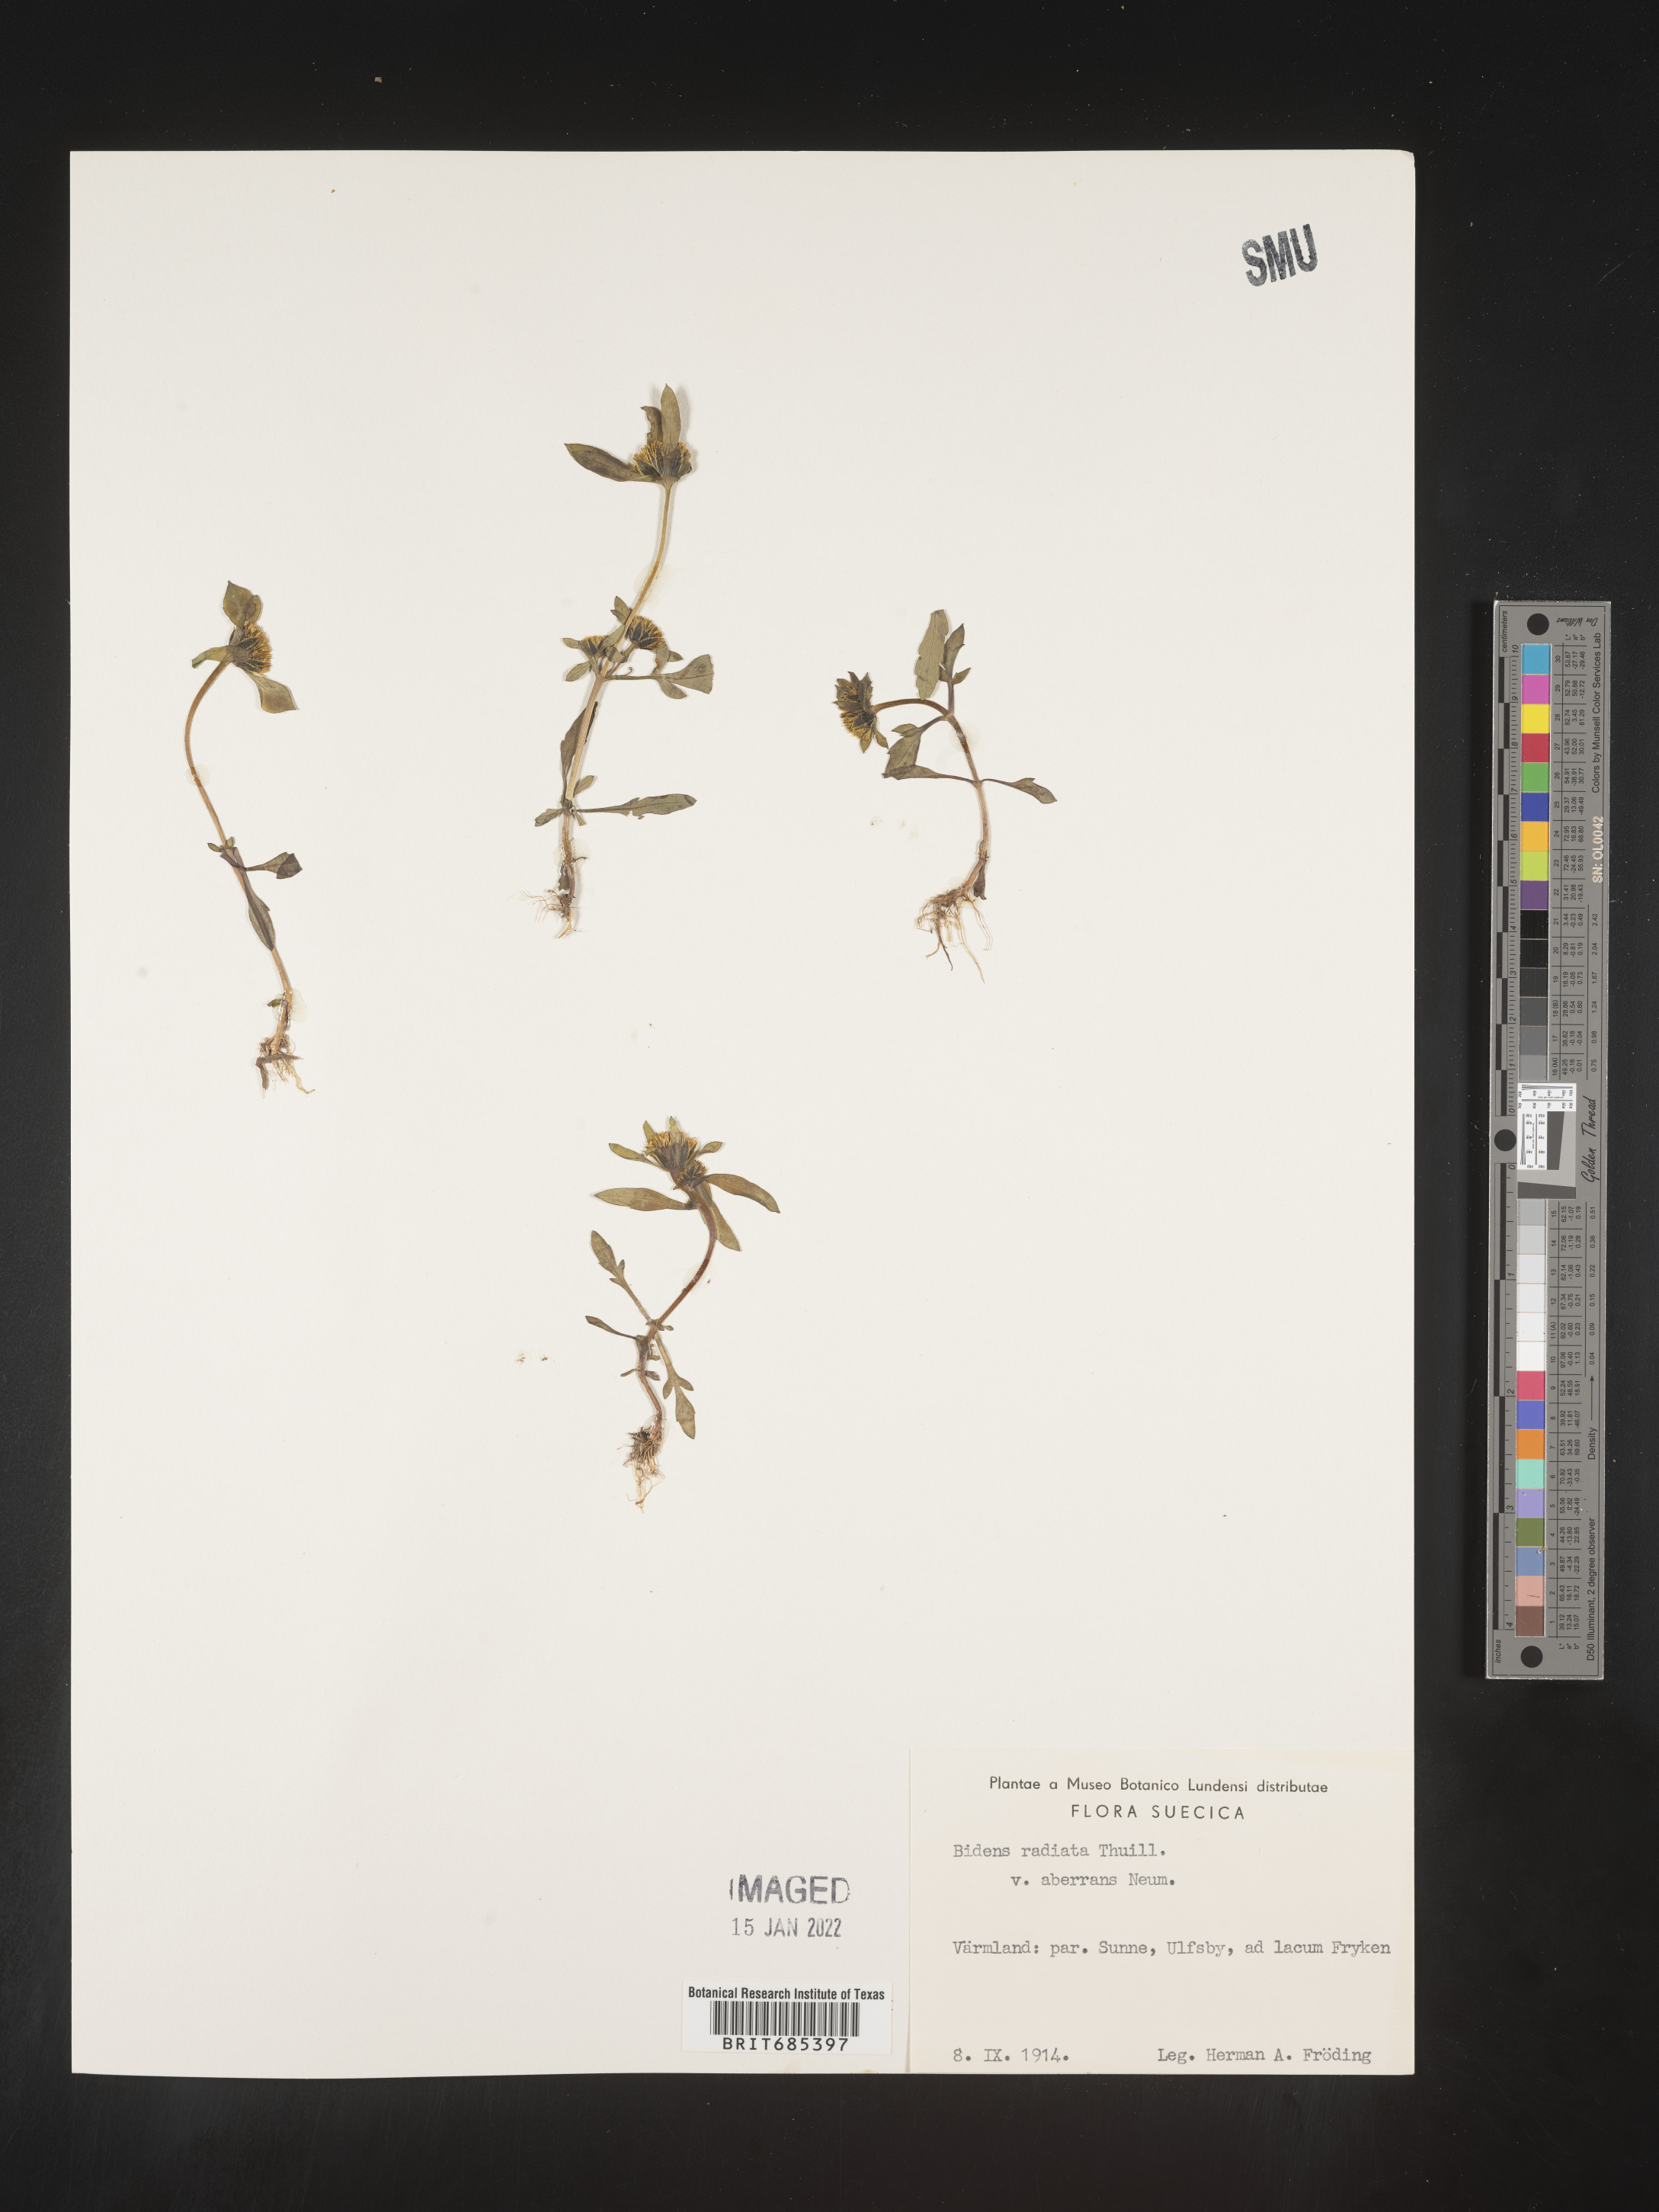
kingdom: Plantae
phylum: Tracheophyta
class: Magnoliopsida
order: Asterales
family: Asteraceae
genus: Bidens
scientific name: Bidens
